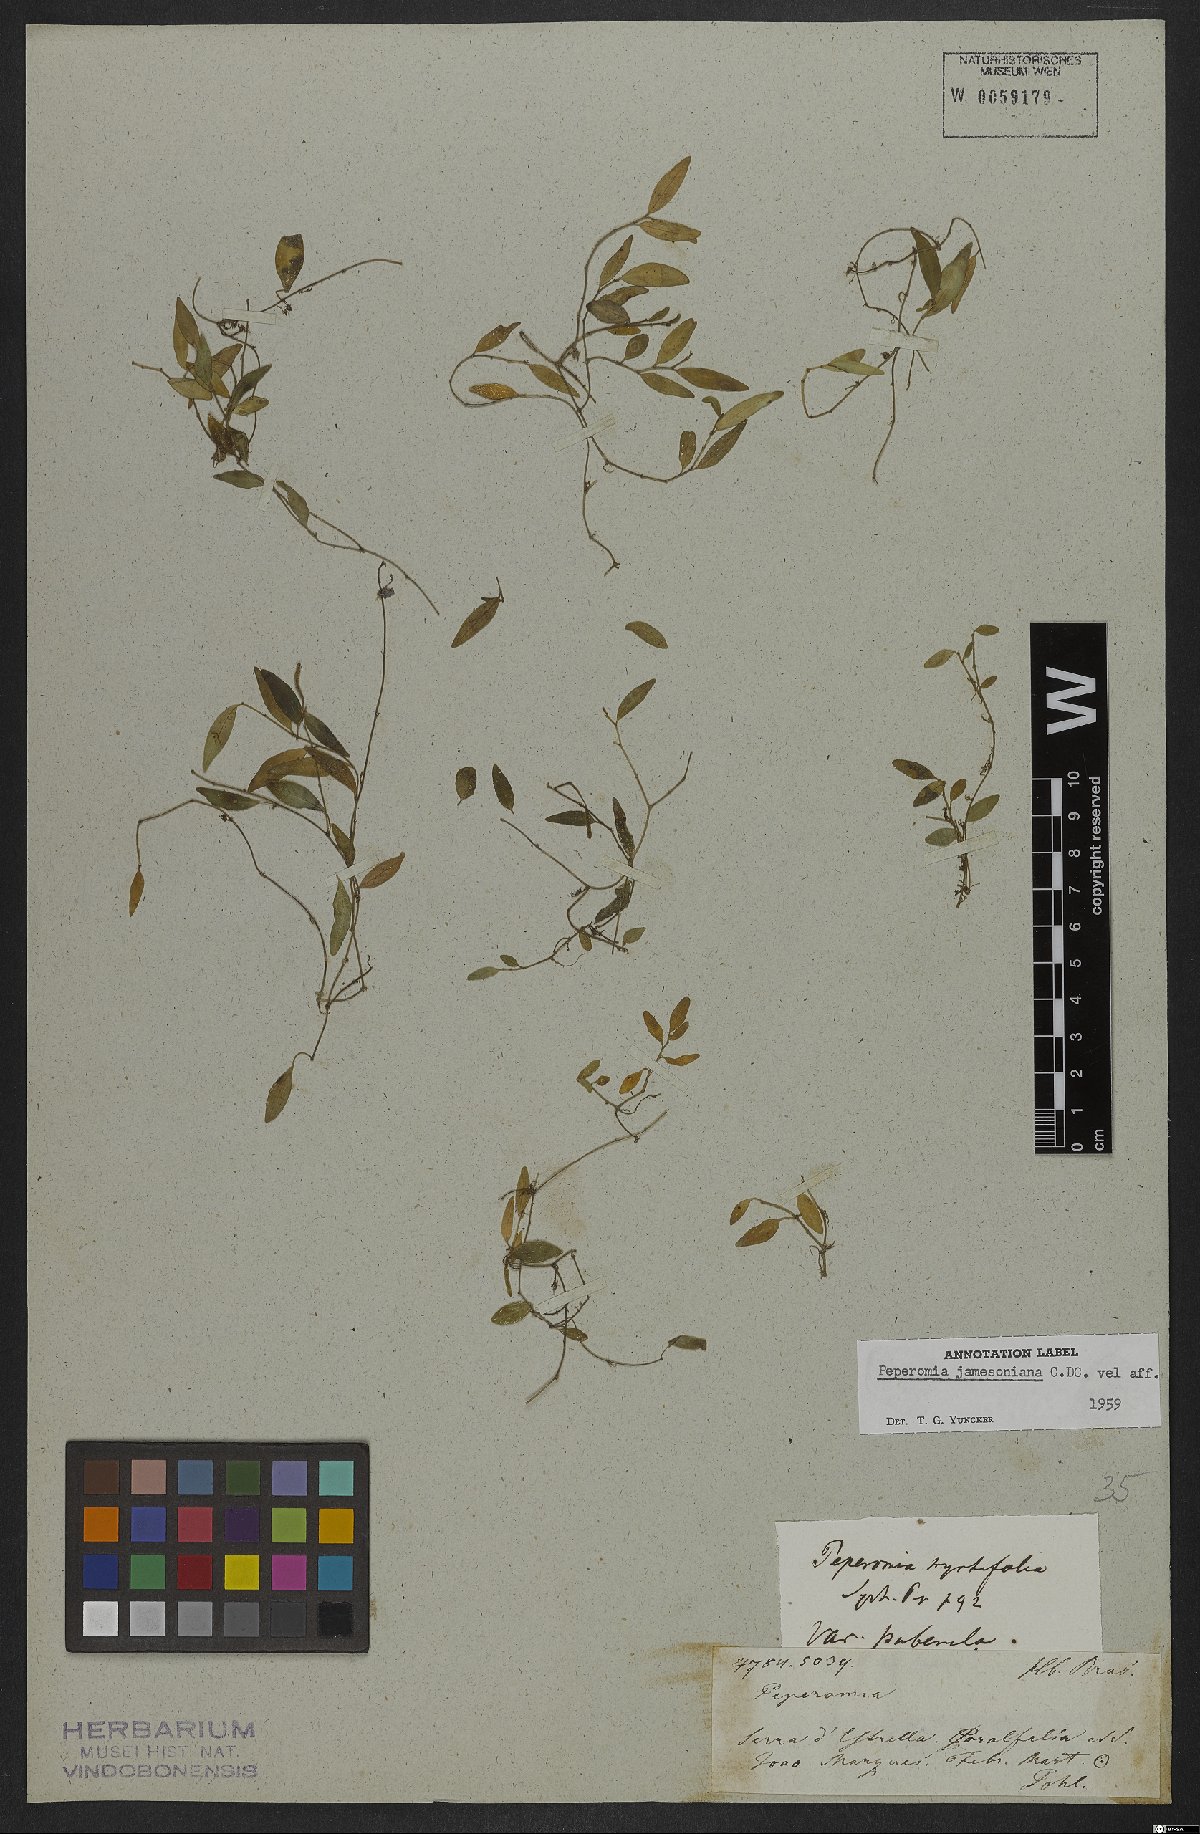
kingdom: Plantae
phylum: Tracheophyta
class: Magnoliopsida
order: Piperales
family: Piperaceae
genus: Peperomia
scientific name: Peperomia jamesoniana
